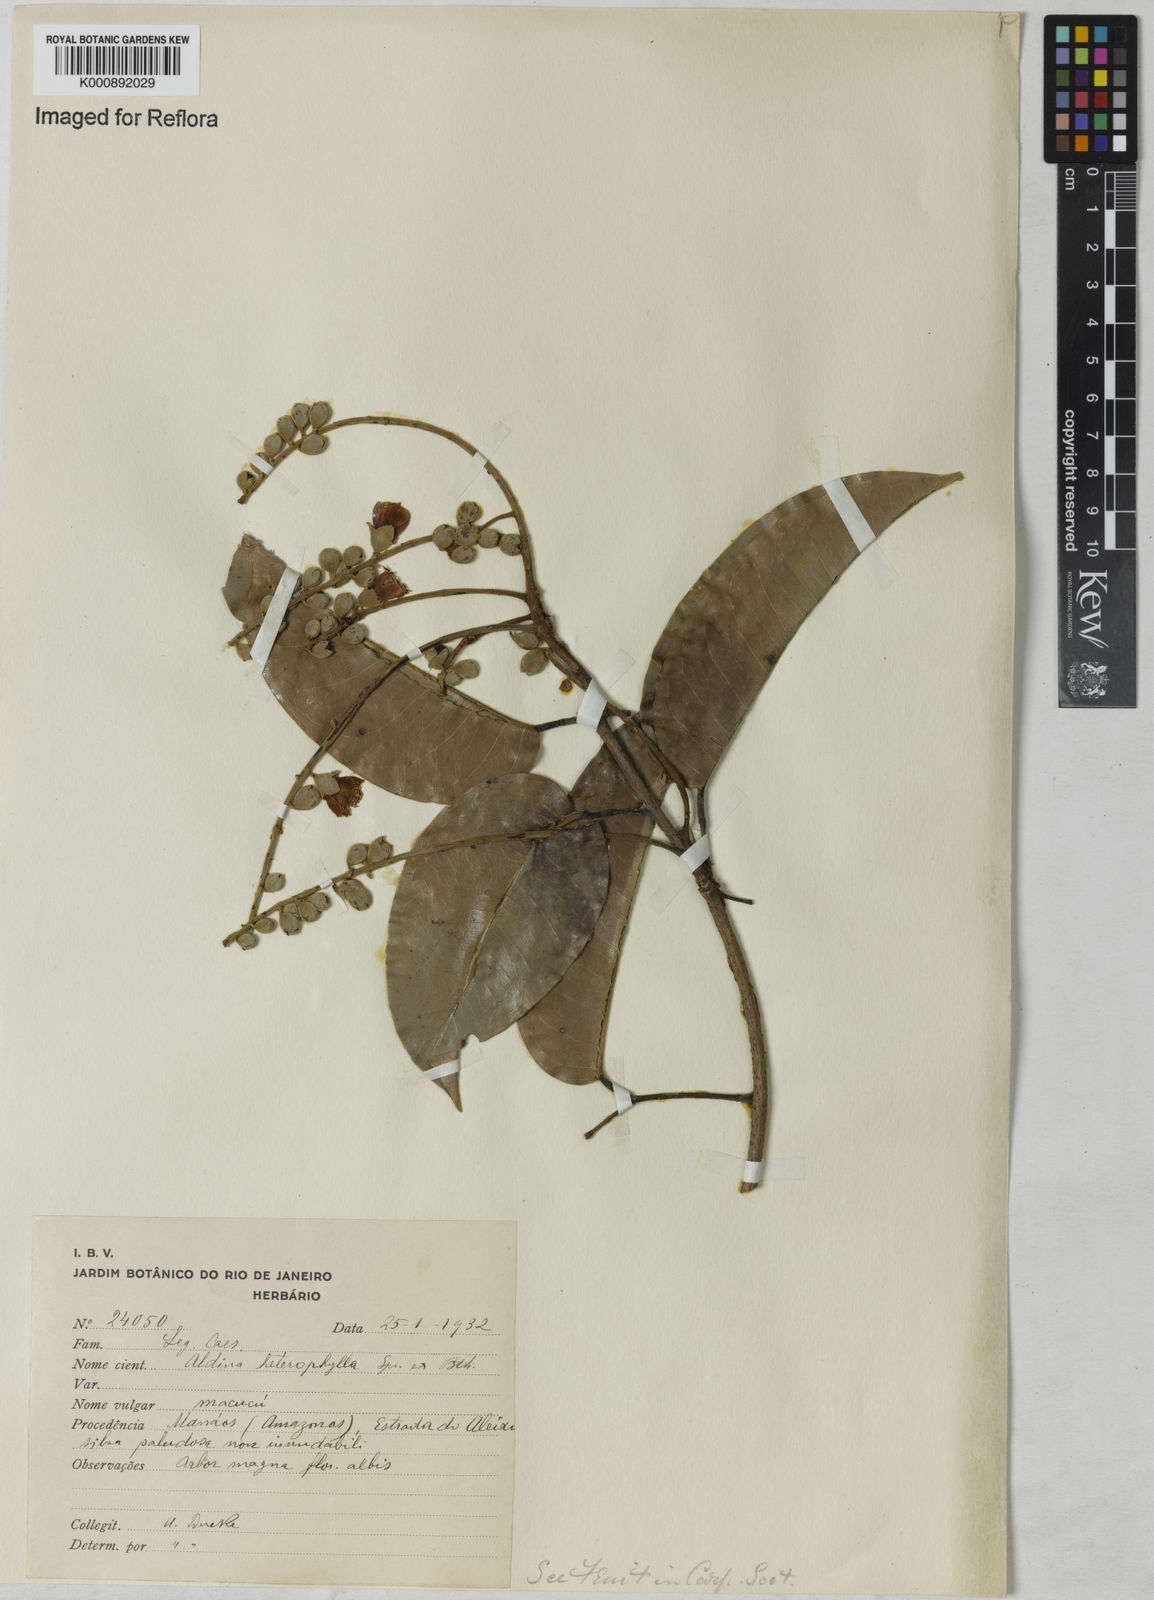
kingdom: Plantae
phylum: Tracheophyta
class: Magnoliopsida
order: Fabales
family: Fabaceae
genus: Aldina
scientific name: Aldina heterophylla
